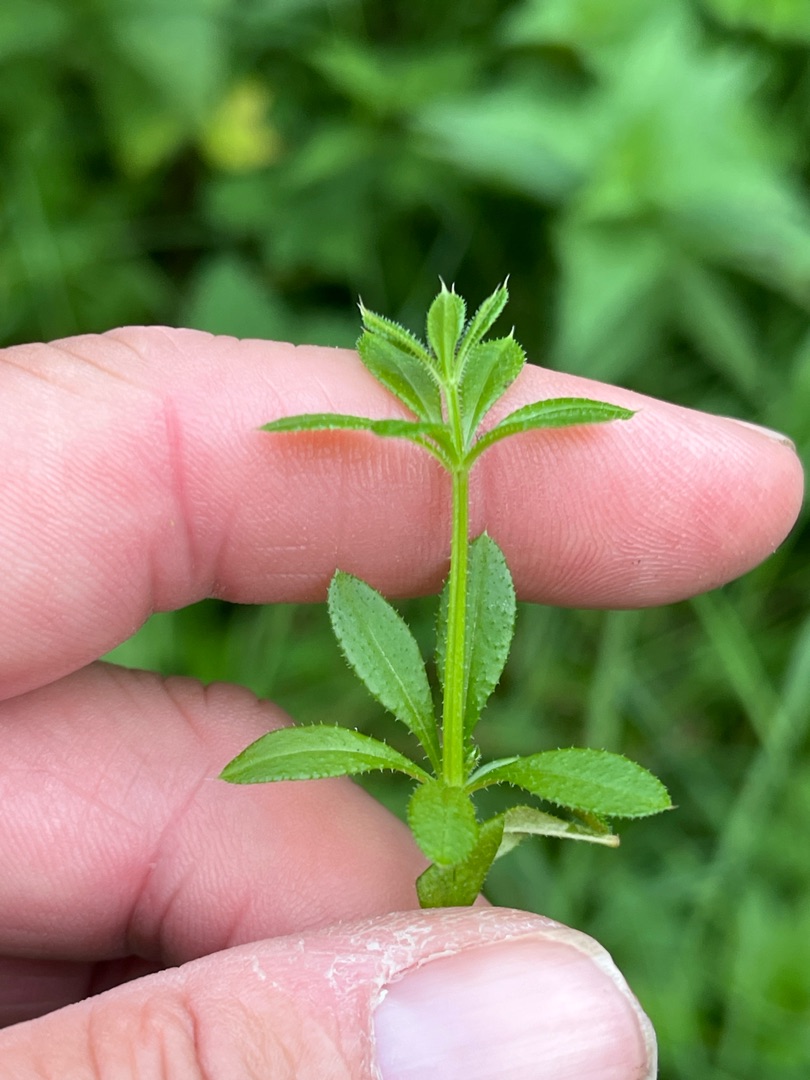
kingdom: Plantae
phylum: Tracheophyta
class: Magnoliopsida
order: Gentianales
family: Rubiaceae
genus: Galium
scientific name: Galium aparine
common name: Burre-snerre
